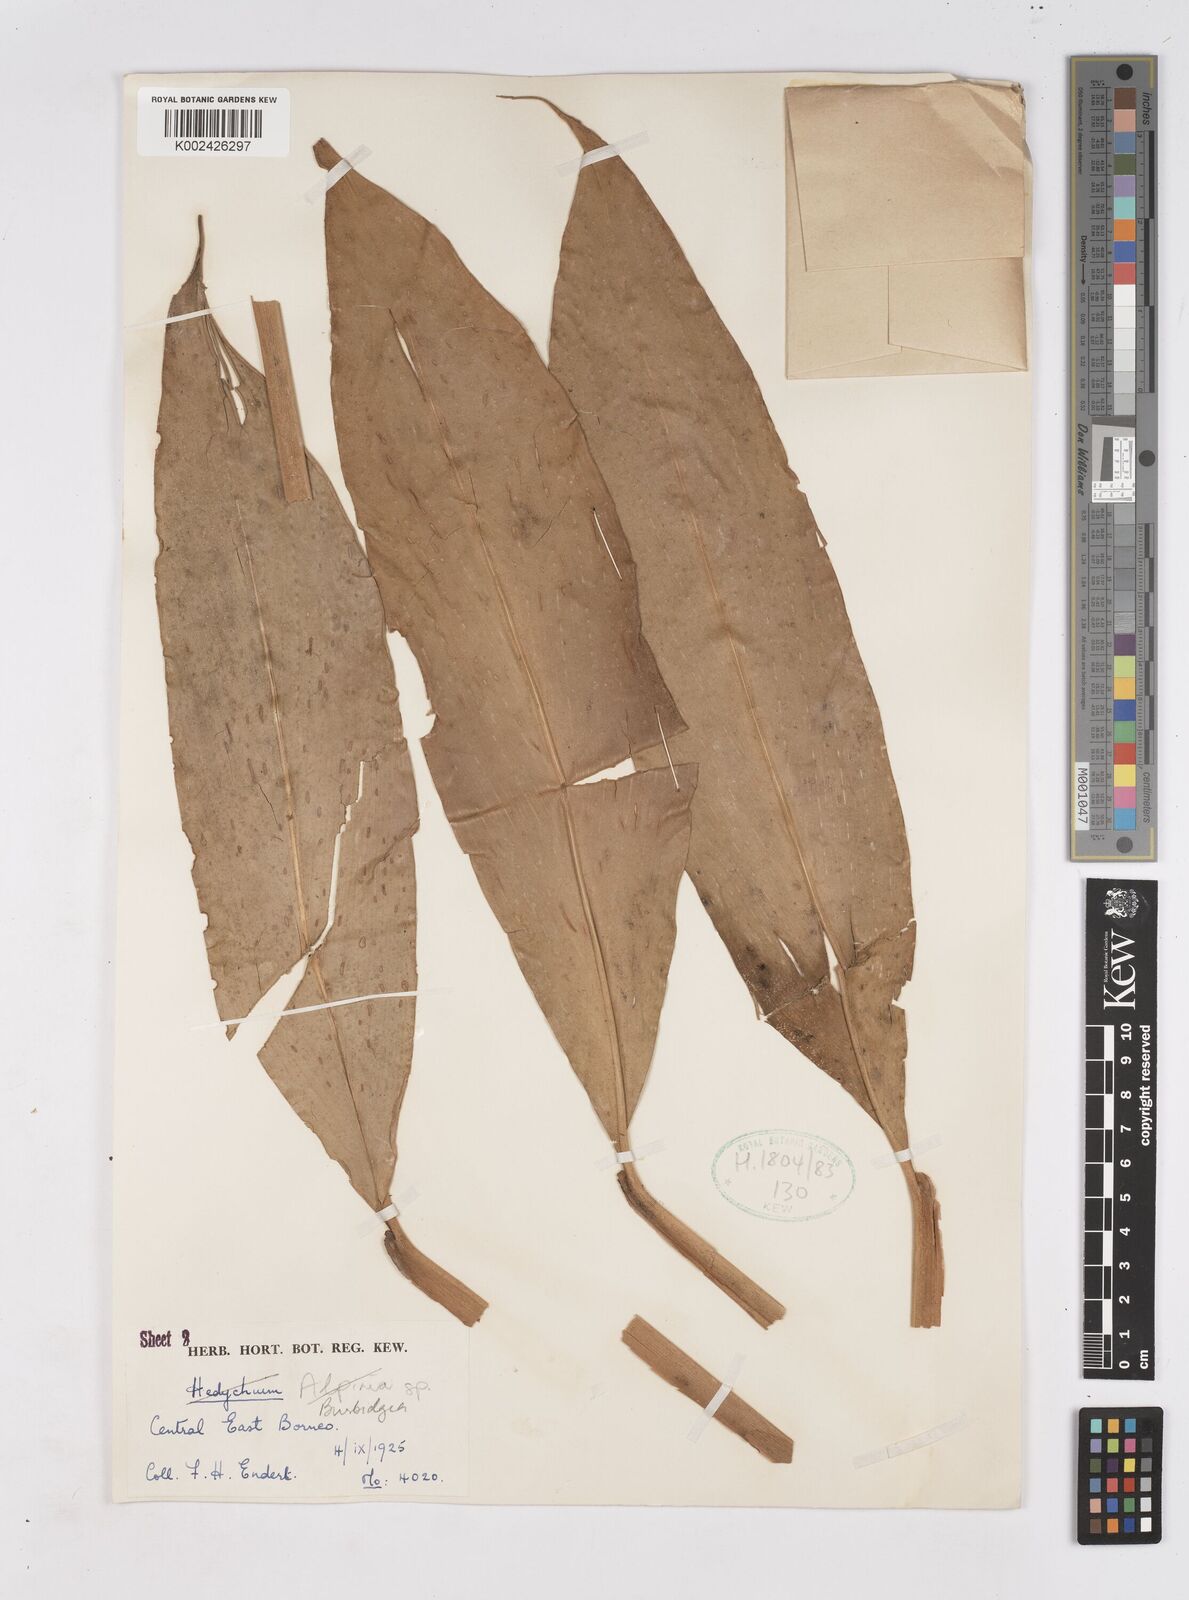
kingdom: Plantae
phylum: Tracheophyta
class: Liliopsida
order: Zingiberales
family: Zingiberaceae
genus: Burbidgea
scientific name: Burbidgea schizocheila
